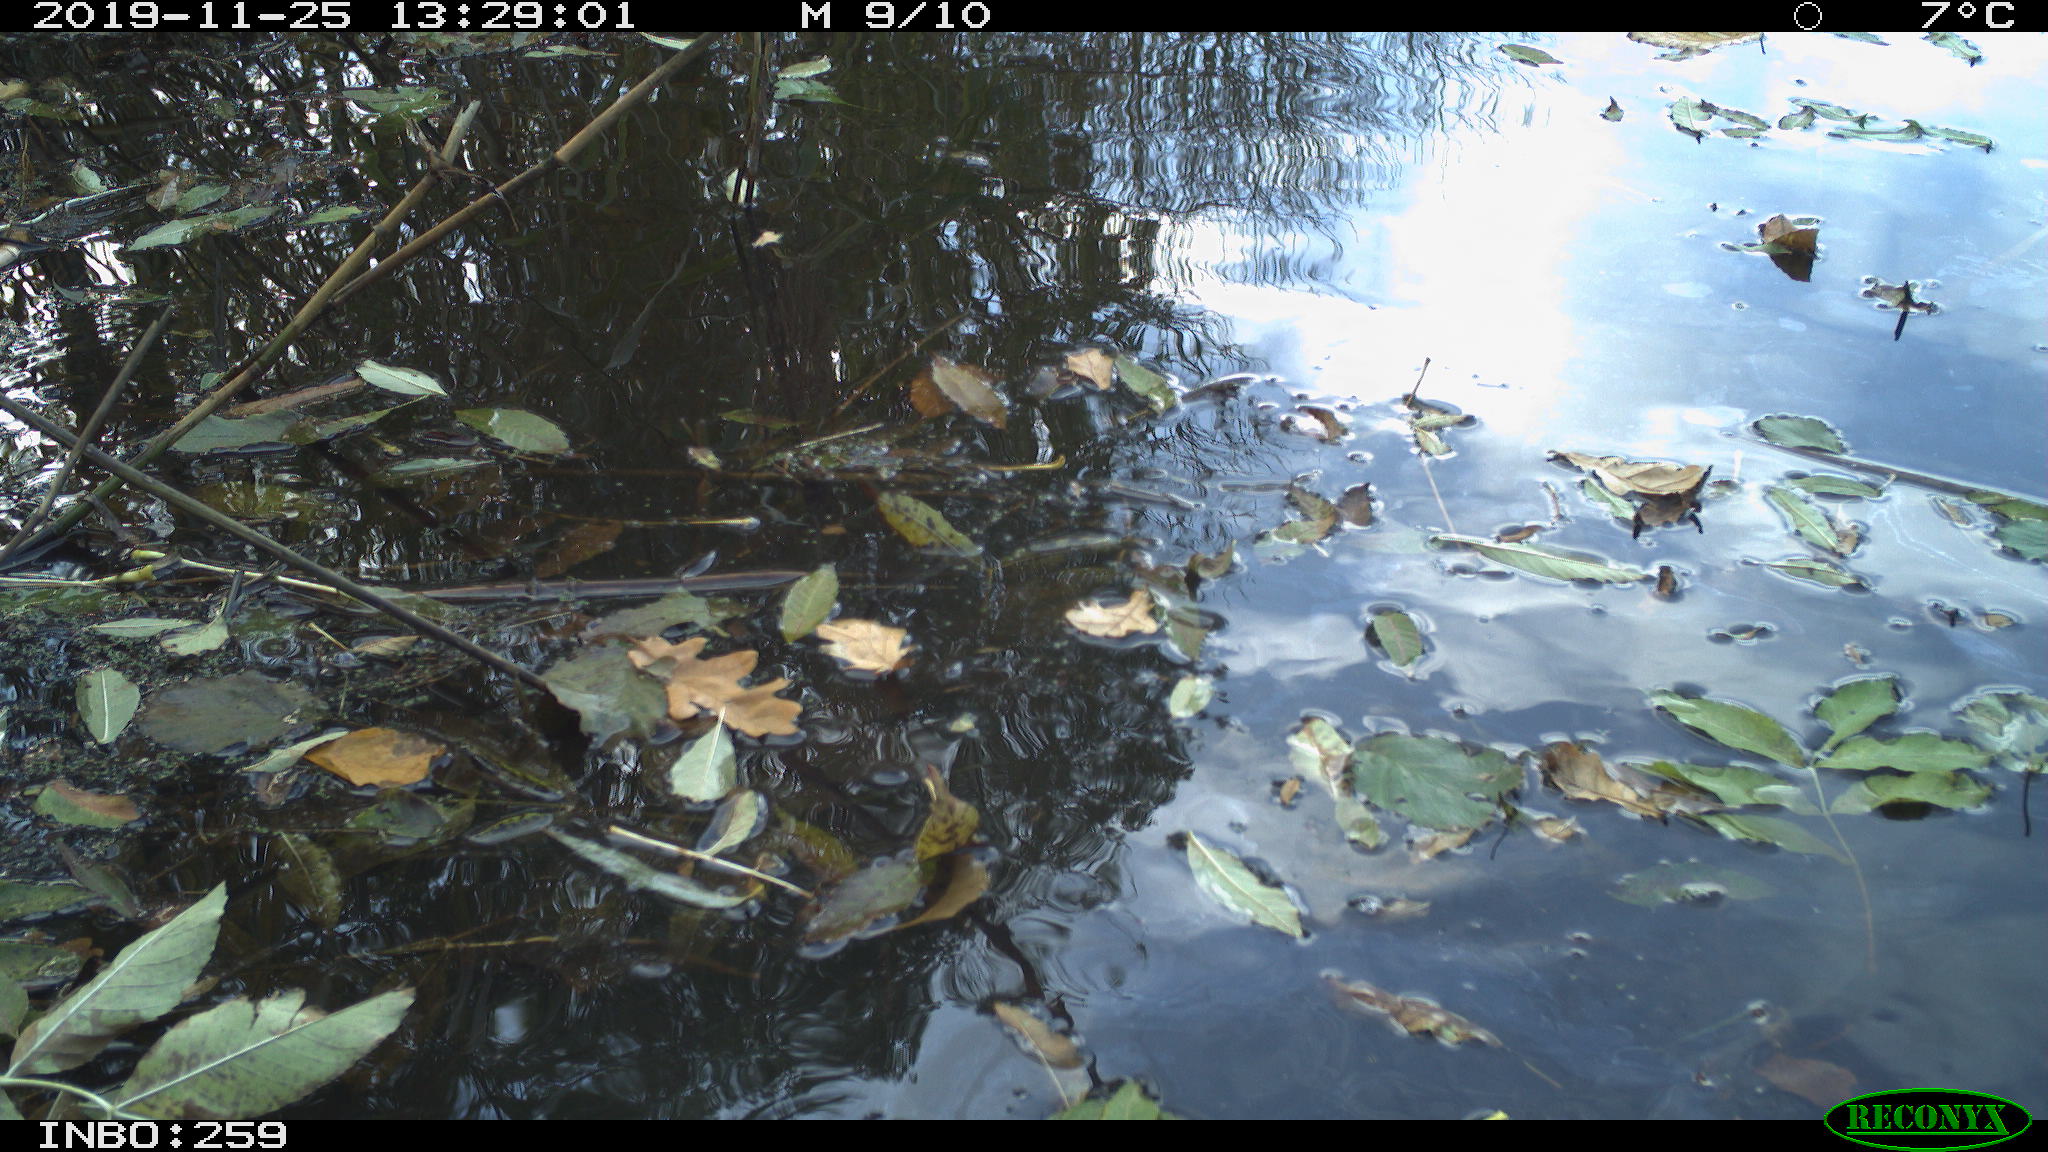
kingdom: Animalia
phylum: Chordata
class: Aves
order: Gruiformes
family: Rallidae
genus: Gallinula
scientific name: Gallinula chloropus
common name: Common moorhen
